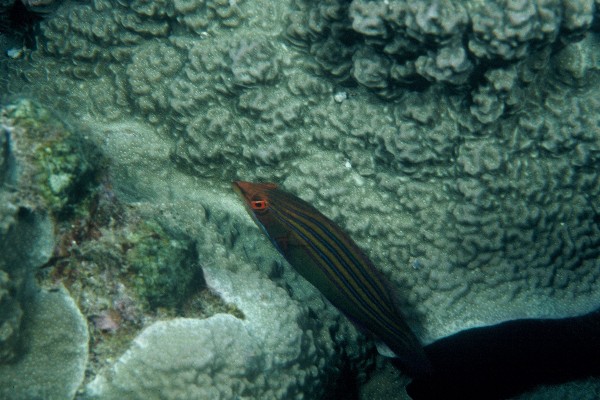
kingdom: Animalia
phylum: Chordata
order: Perciformes
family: Labridae
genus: Pseudocheilinus
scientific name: Pseudocheilinus tetrataenia
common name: Fourline wrasse
